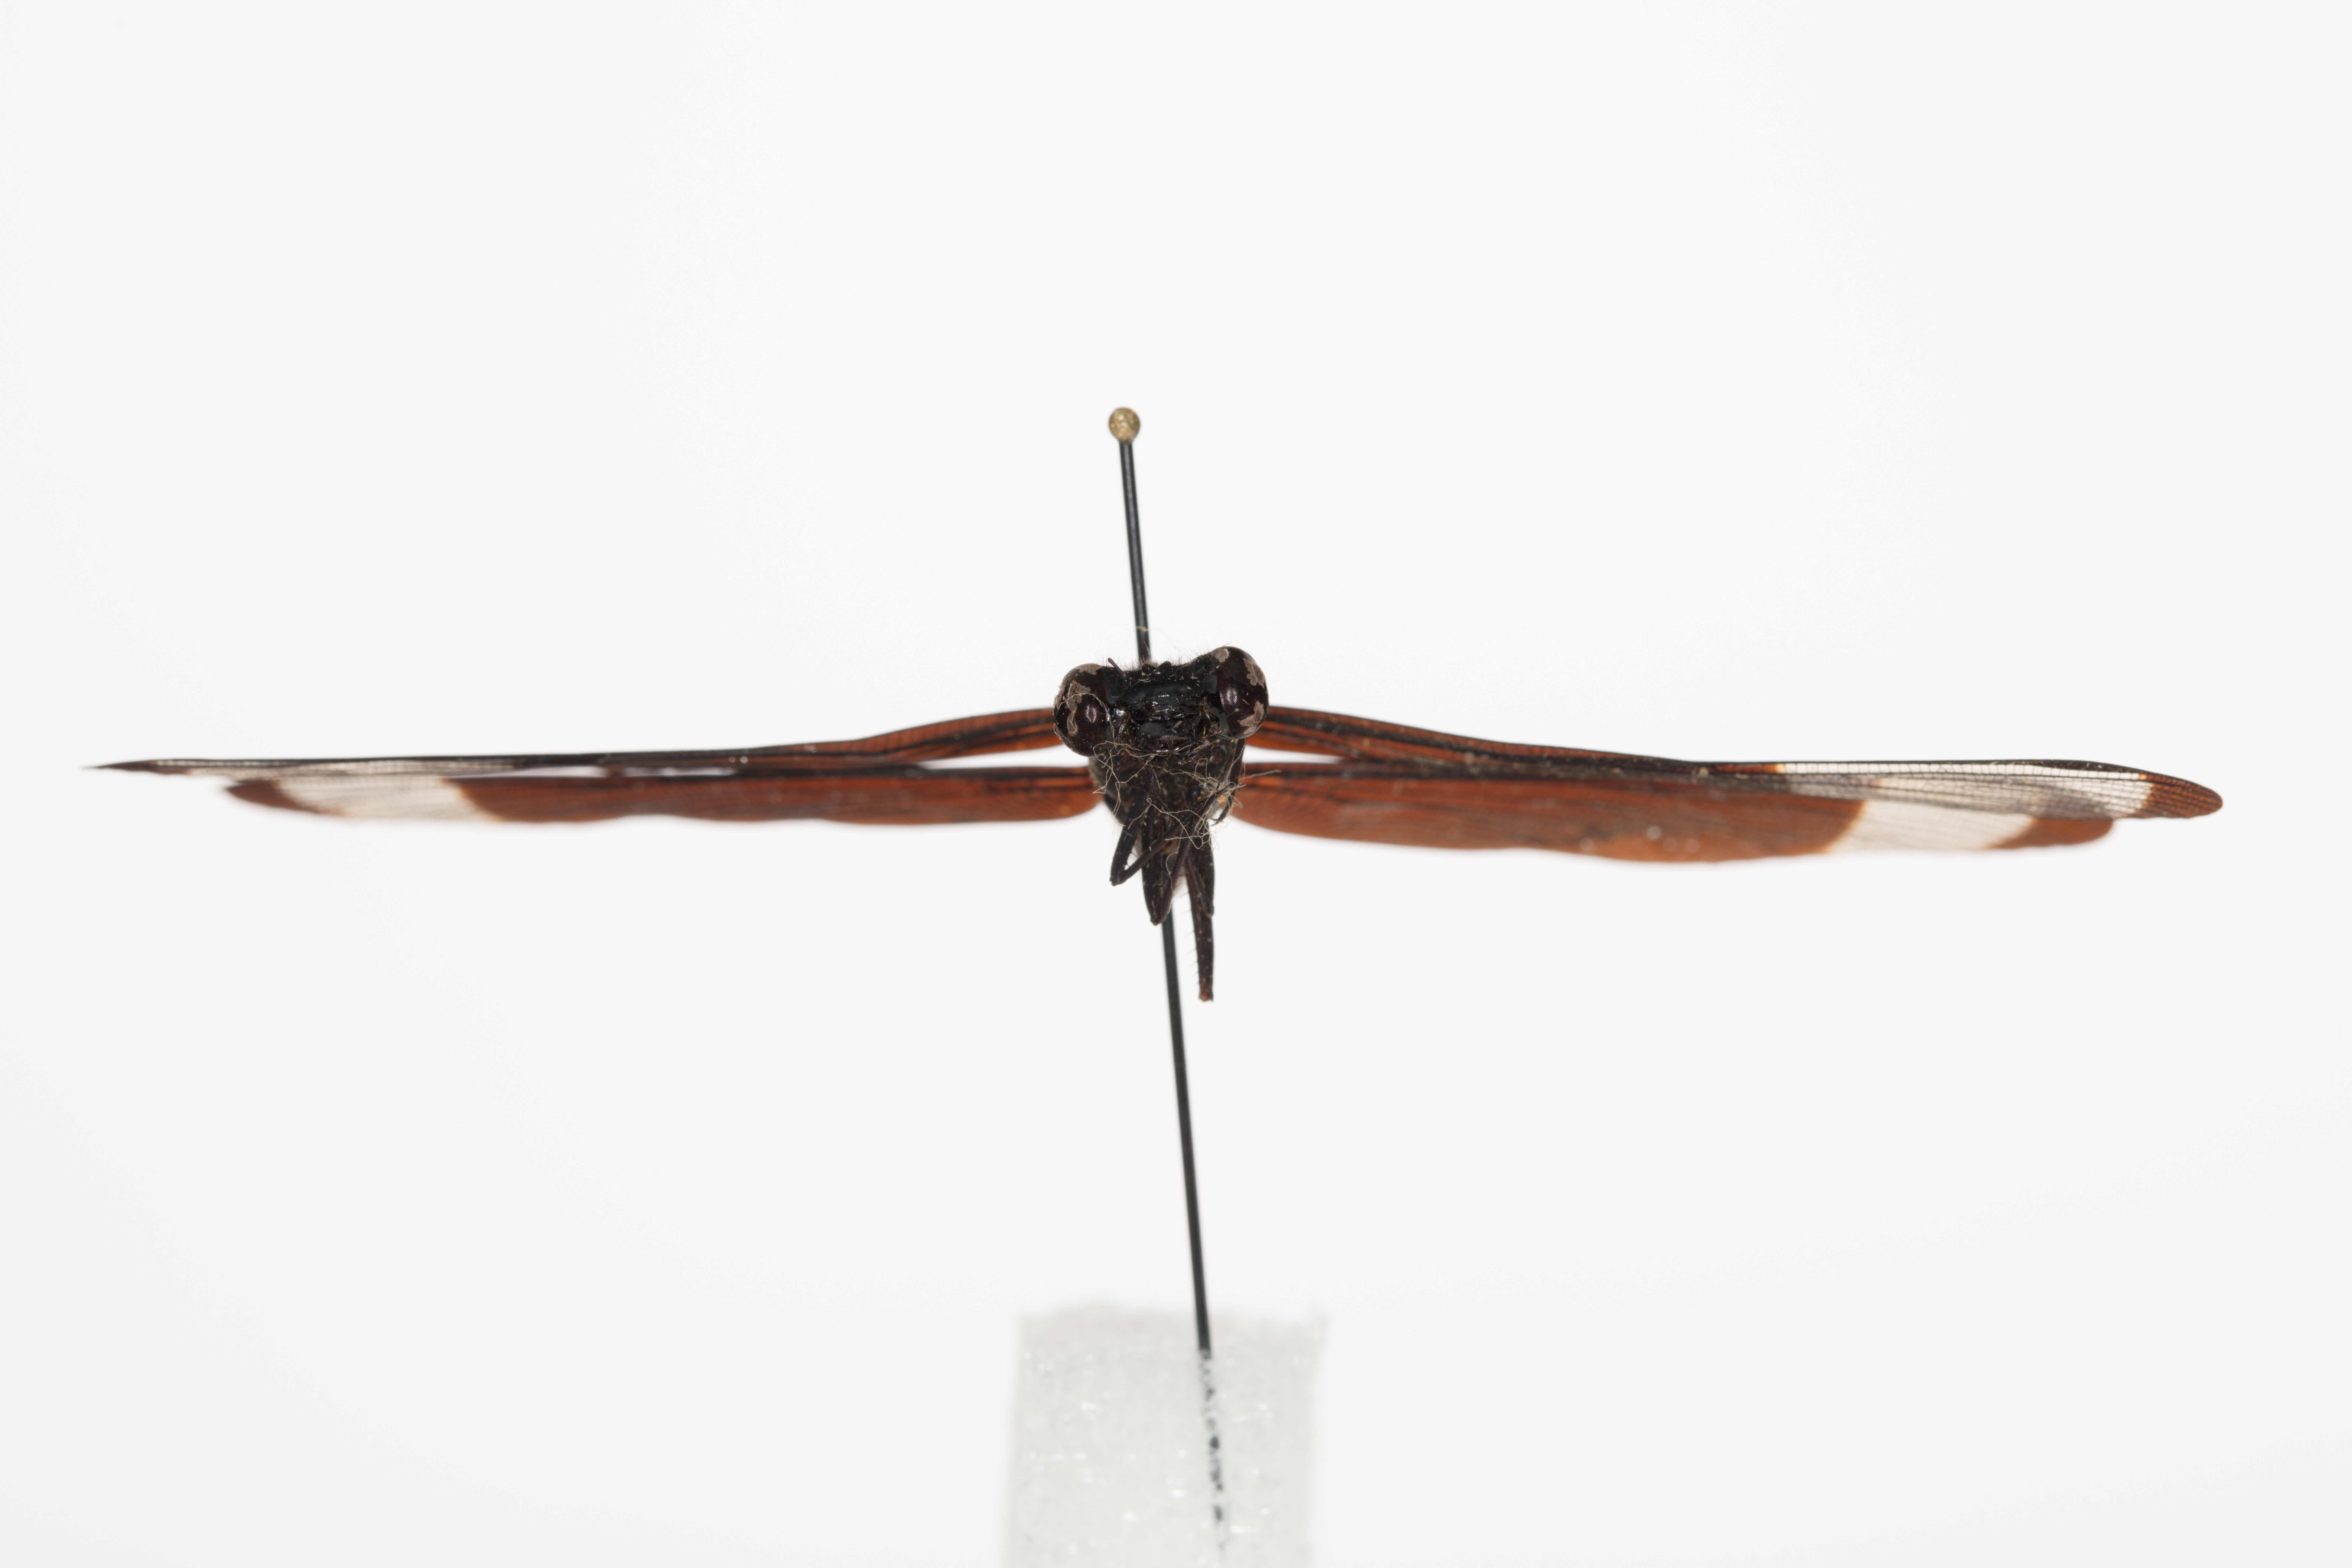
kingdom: Animalia
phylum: Arthropoda
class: Insecta
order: Odonata
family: Euphaeidae
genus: Dysphaea
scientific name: Dysphaea dimidiata
